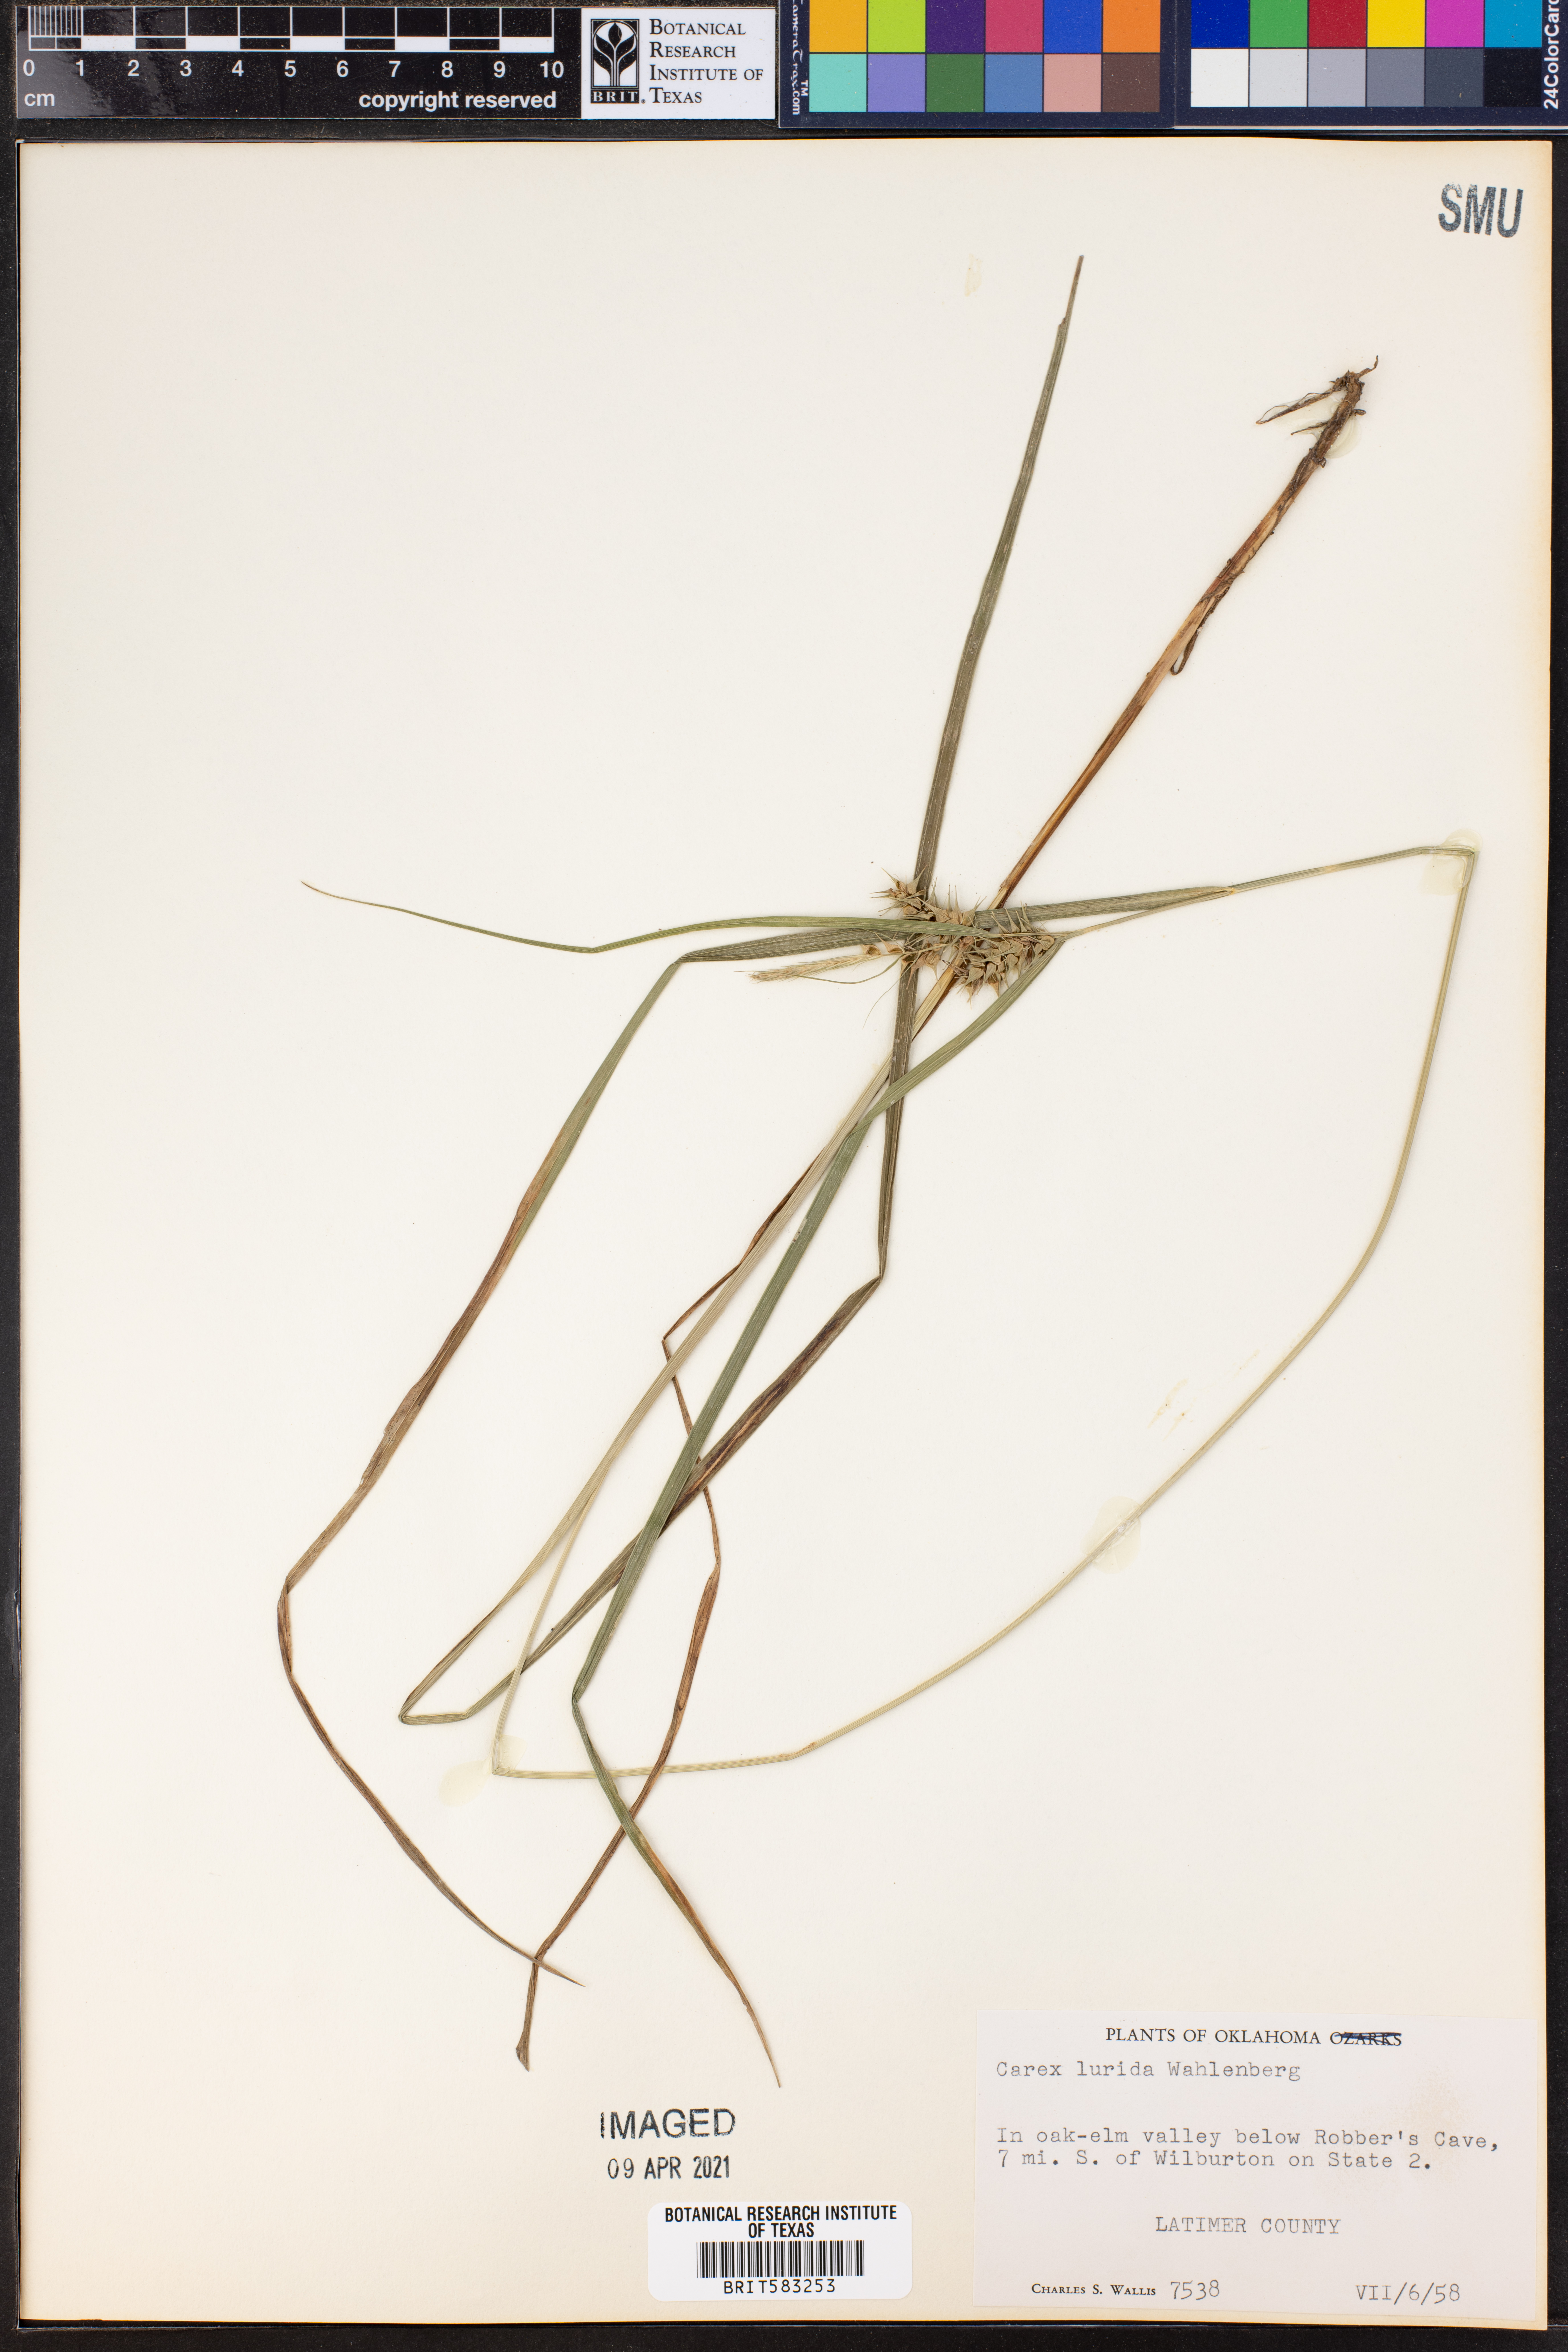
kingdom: Plantae
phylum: Tracheophyta
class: Liliopsida
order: Poales
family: Cyperaceae
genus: Carex
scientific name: Carex lurida
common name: Sallow sedge
